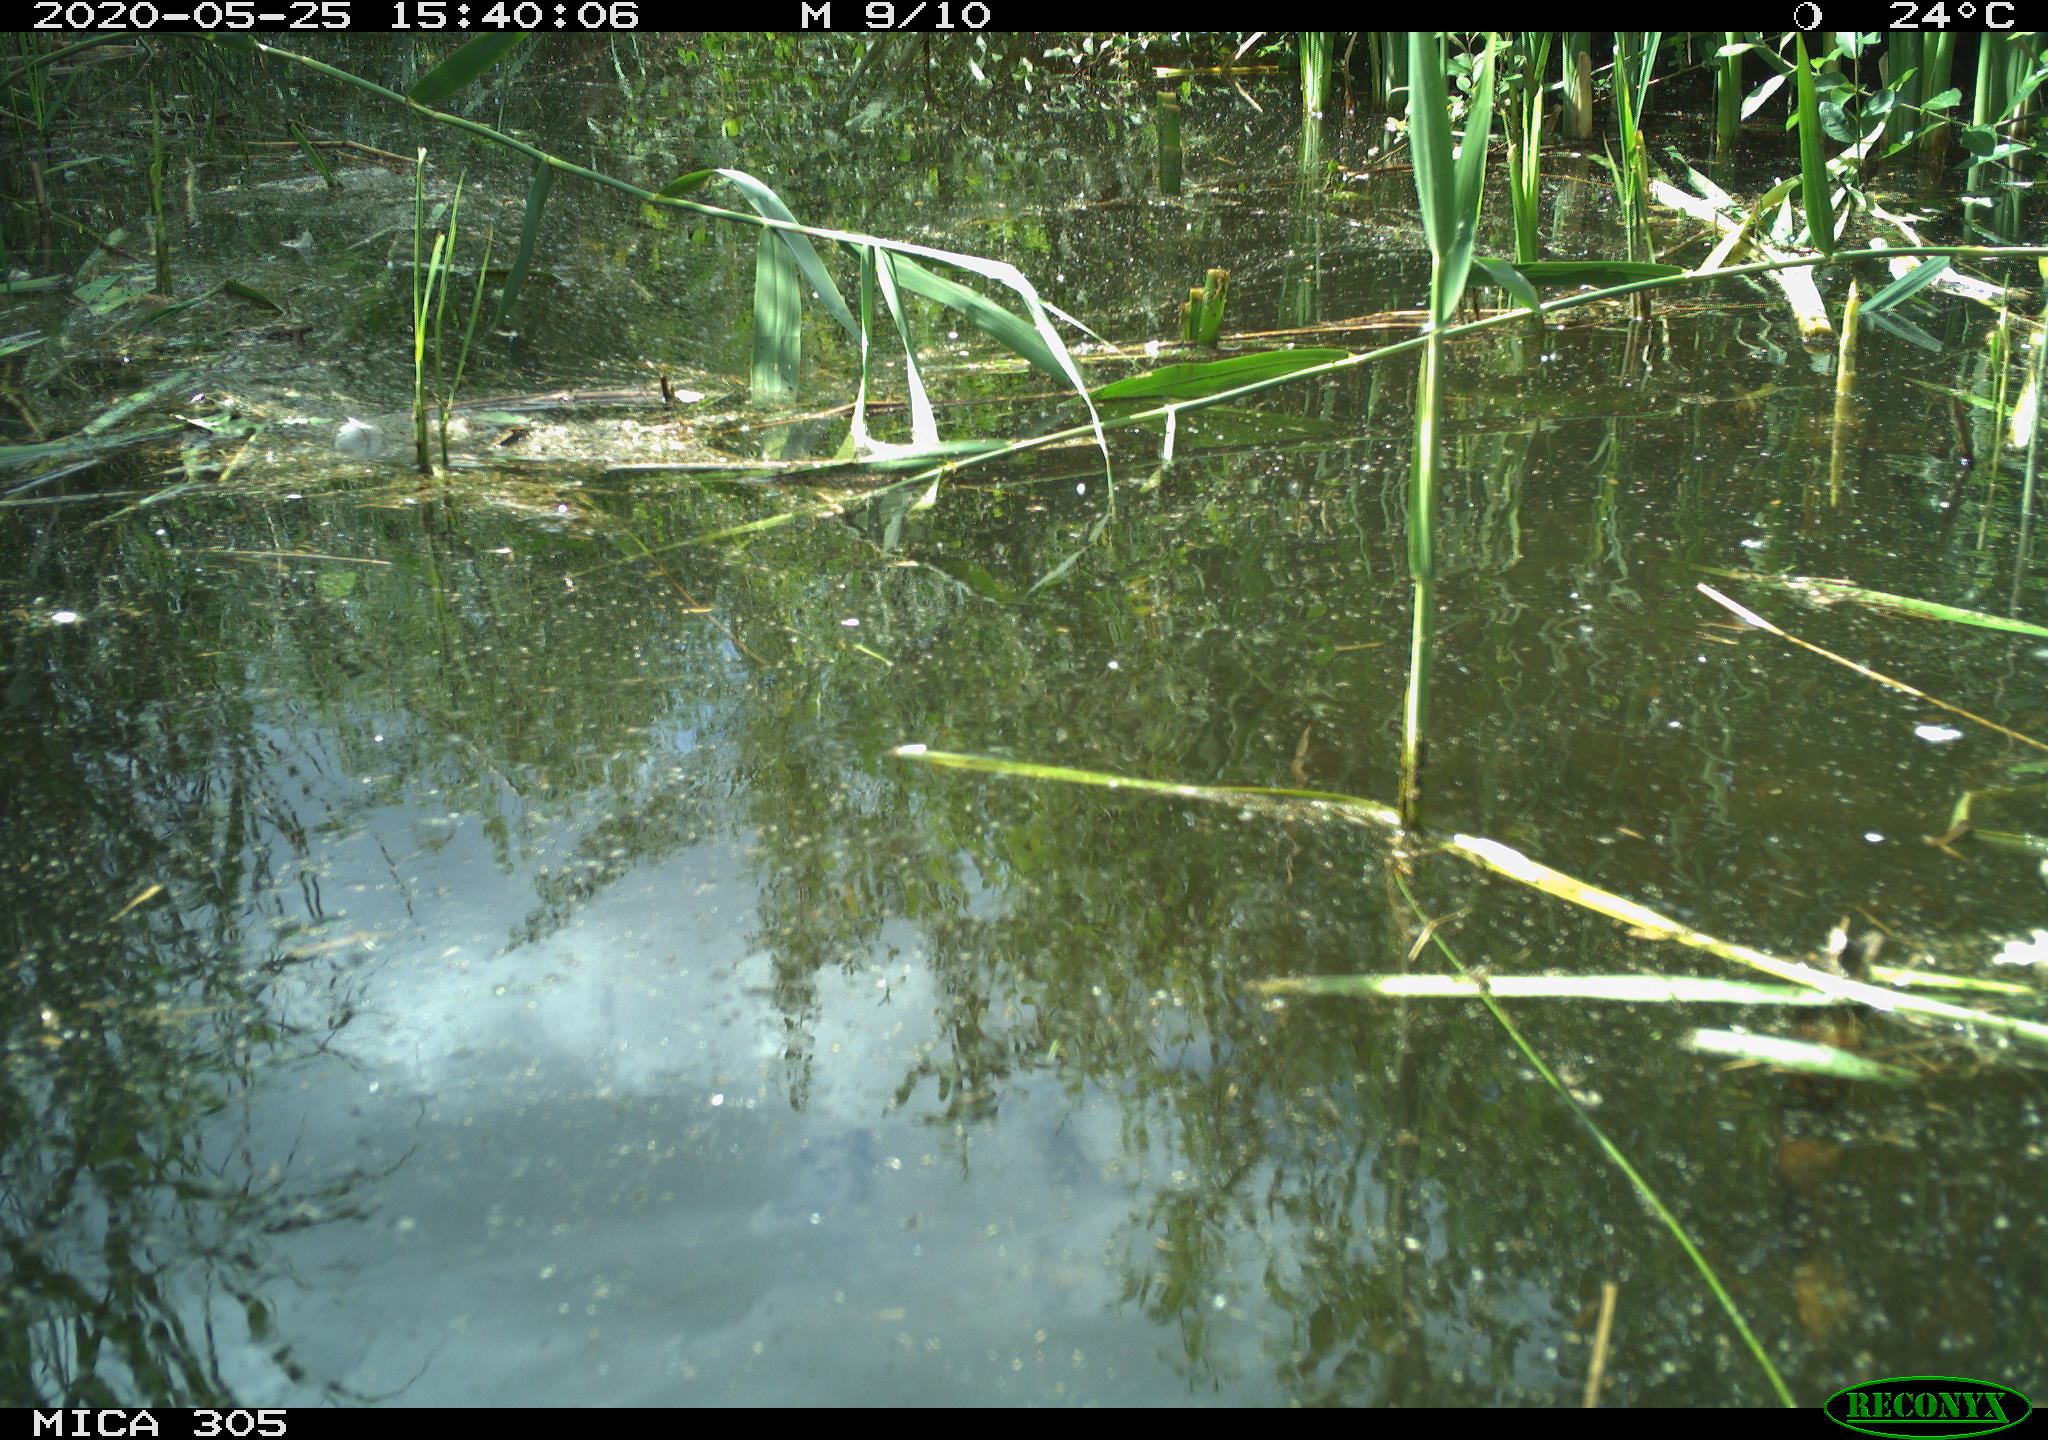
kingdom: Animalia
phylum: Chordata
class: Aves
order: Gruiformes
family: Rallidae
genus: Gallinula
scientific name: Gallinula chloropus
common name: Common moorhen
